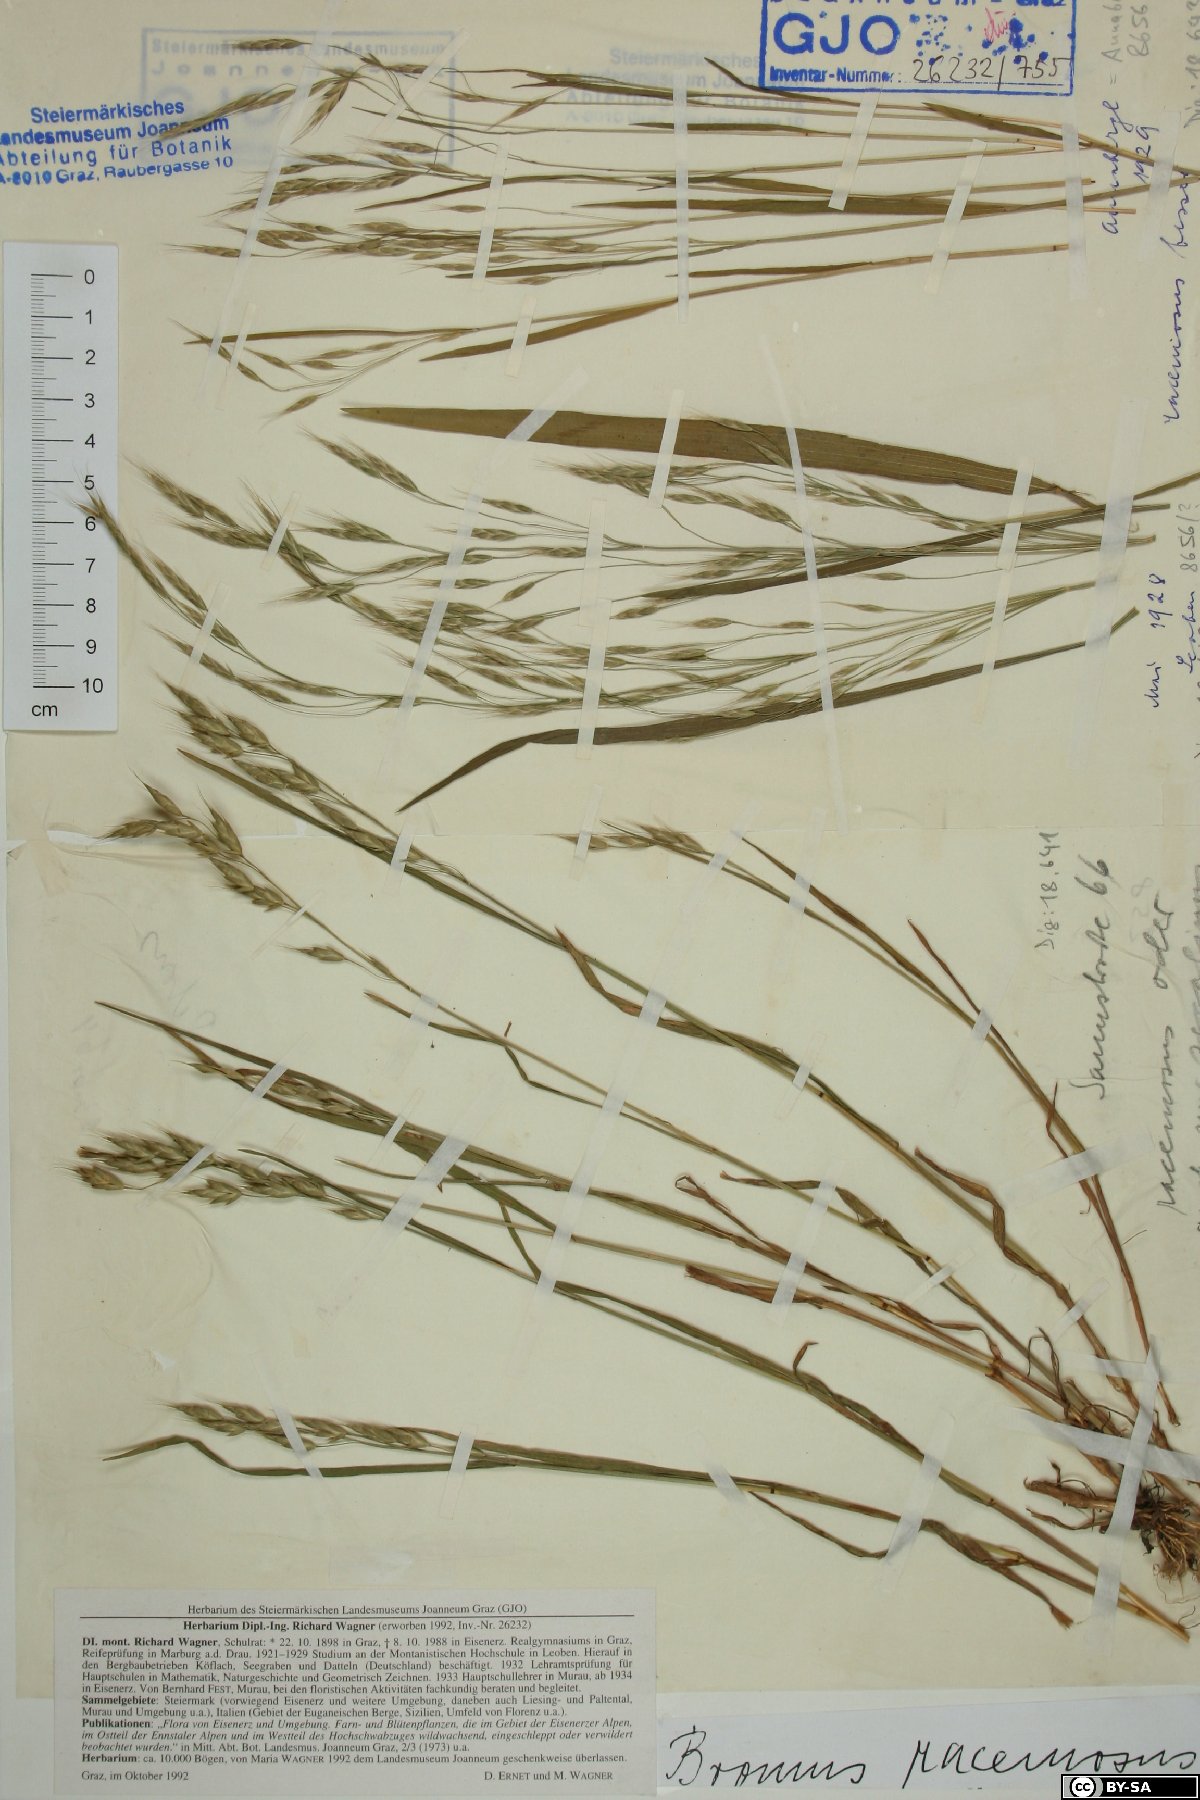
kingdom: Plantae
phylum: Tracheophyta
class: Liliopsida
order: Poales
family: Poaceae
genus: Bromus
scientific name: Bromus racemosus
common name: Bald brome
